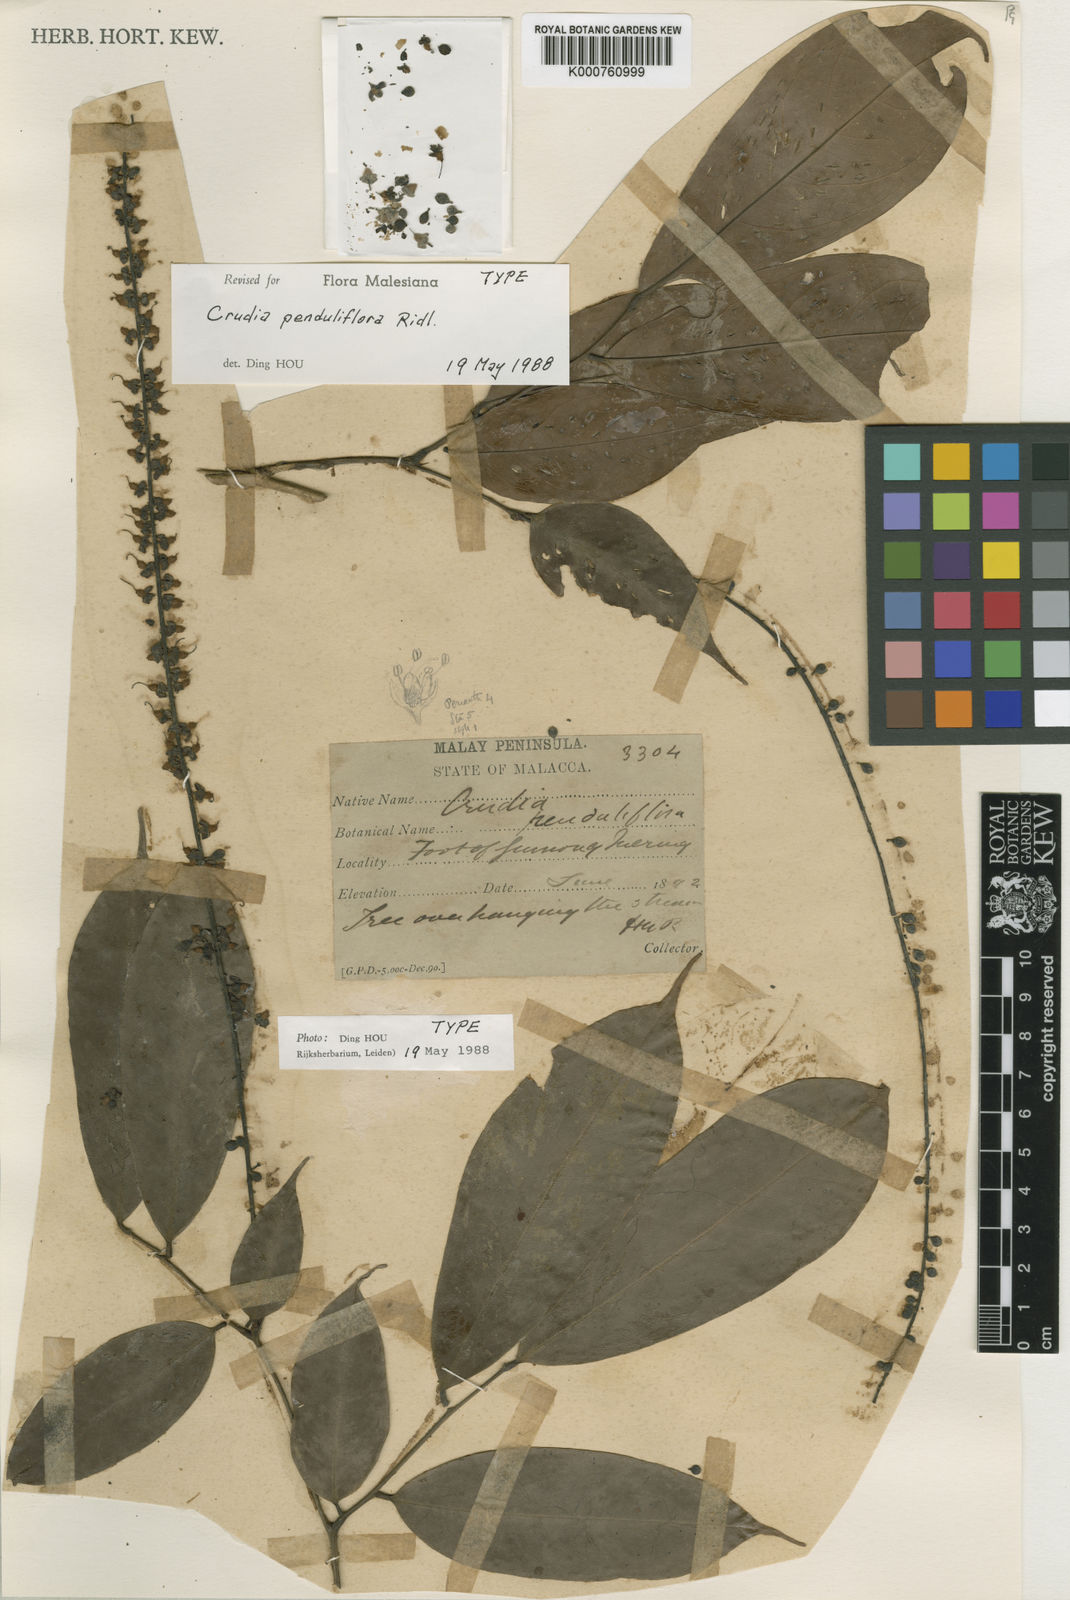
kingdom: Plantae
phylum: Tracheophyta
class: Magnoliopsida
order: Fabales
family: Fabaceae
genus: Crudia
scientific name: Crudia penduliflora
